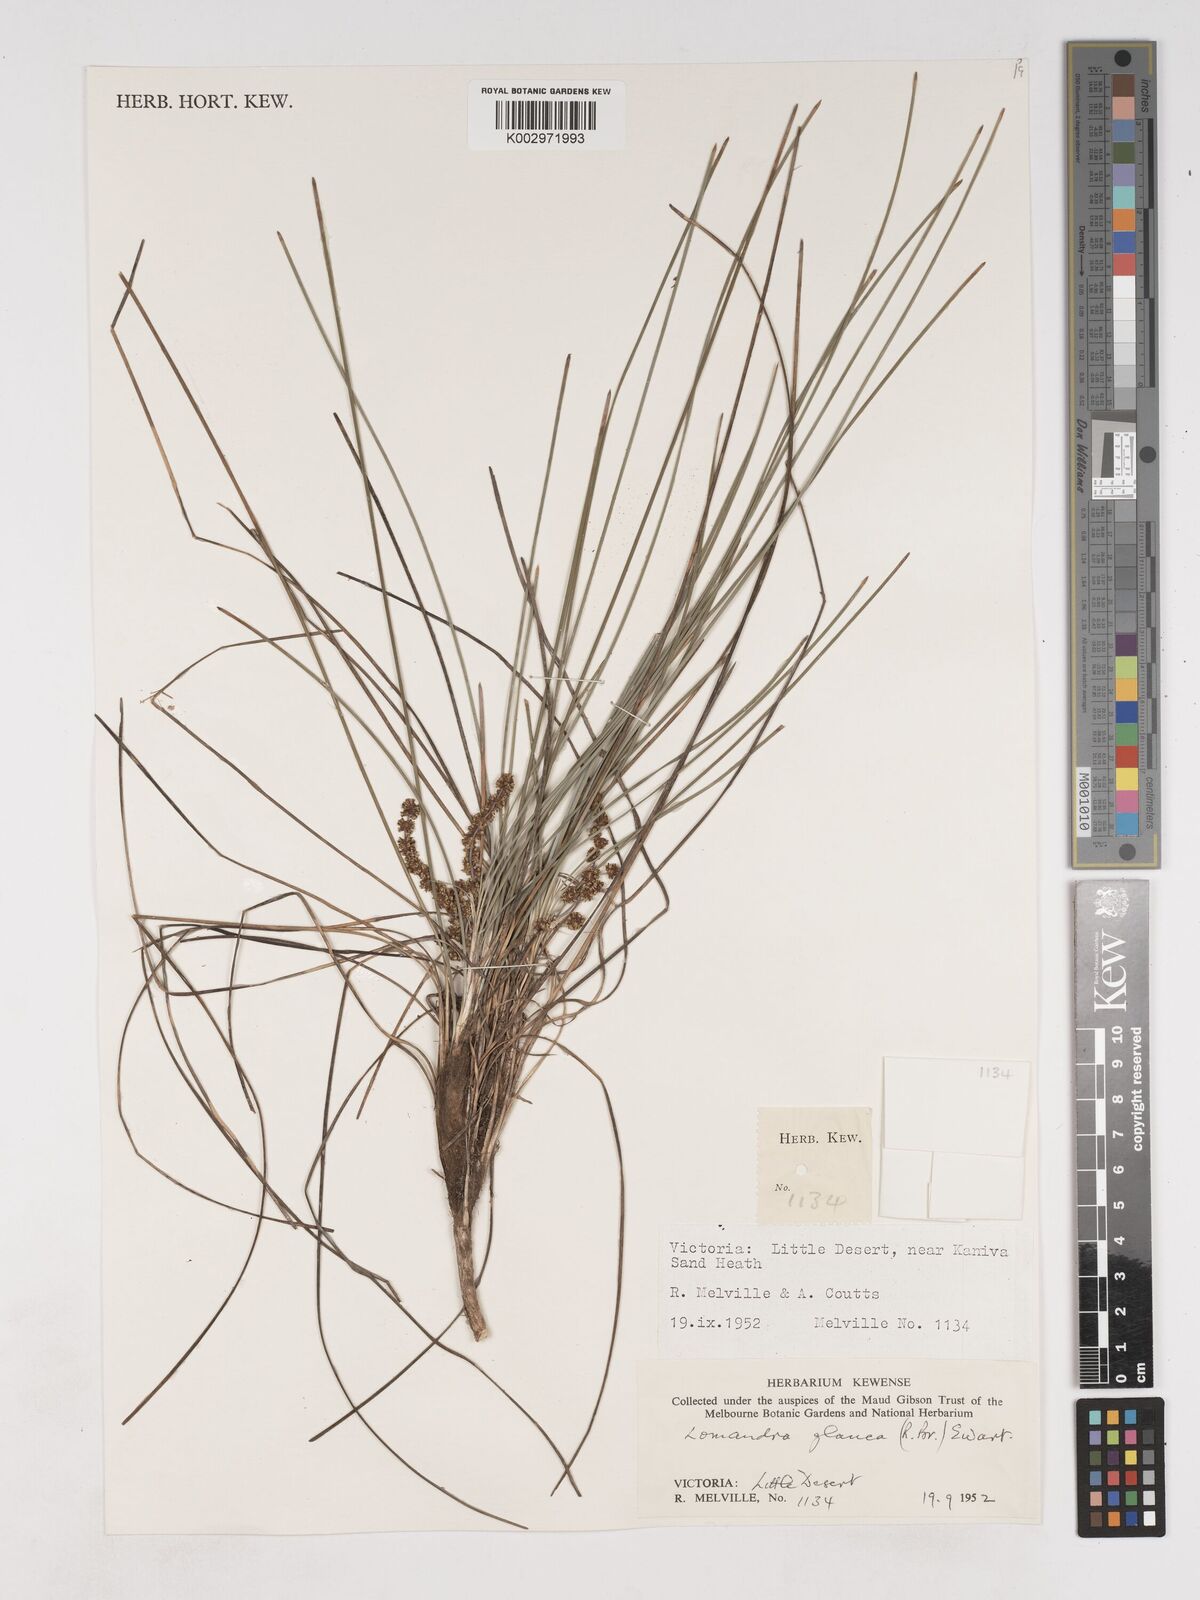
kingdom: Plantae
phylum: Tracheophyta
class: Liliopsida
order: Asparagales
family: Asparagaceae
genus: Lomandra
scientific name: Lomandra glauca
